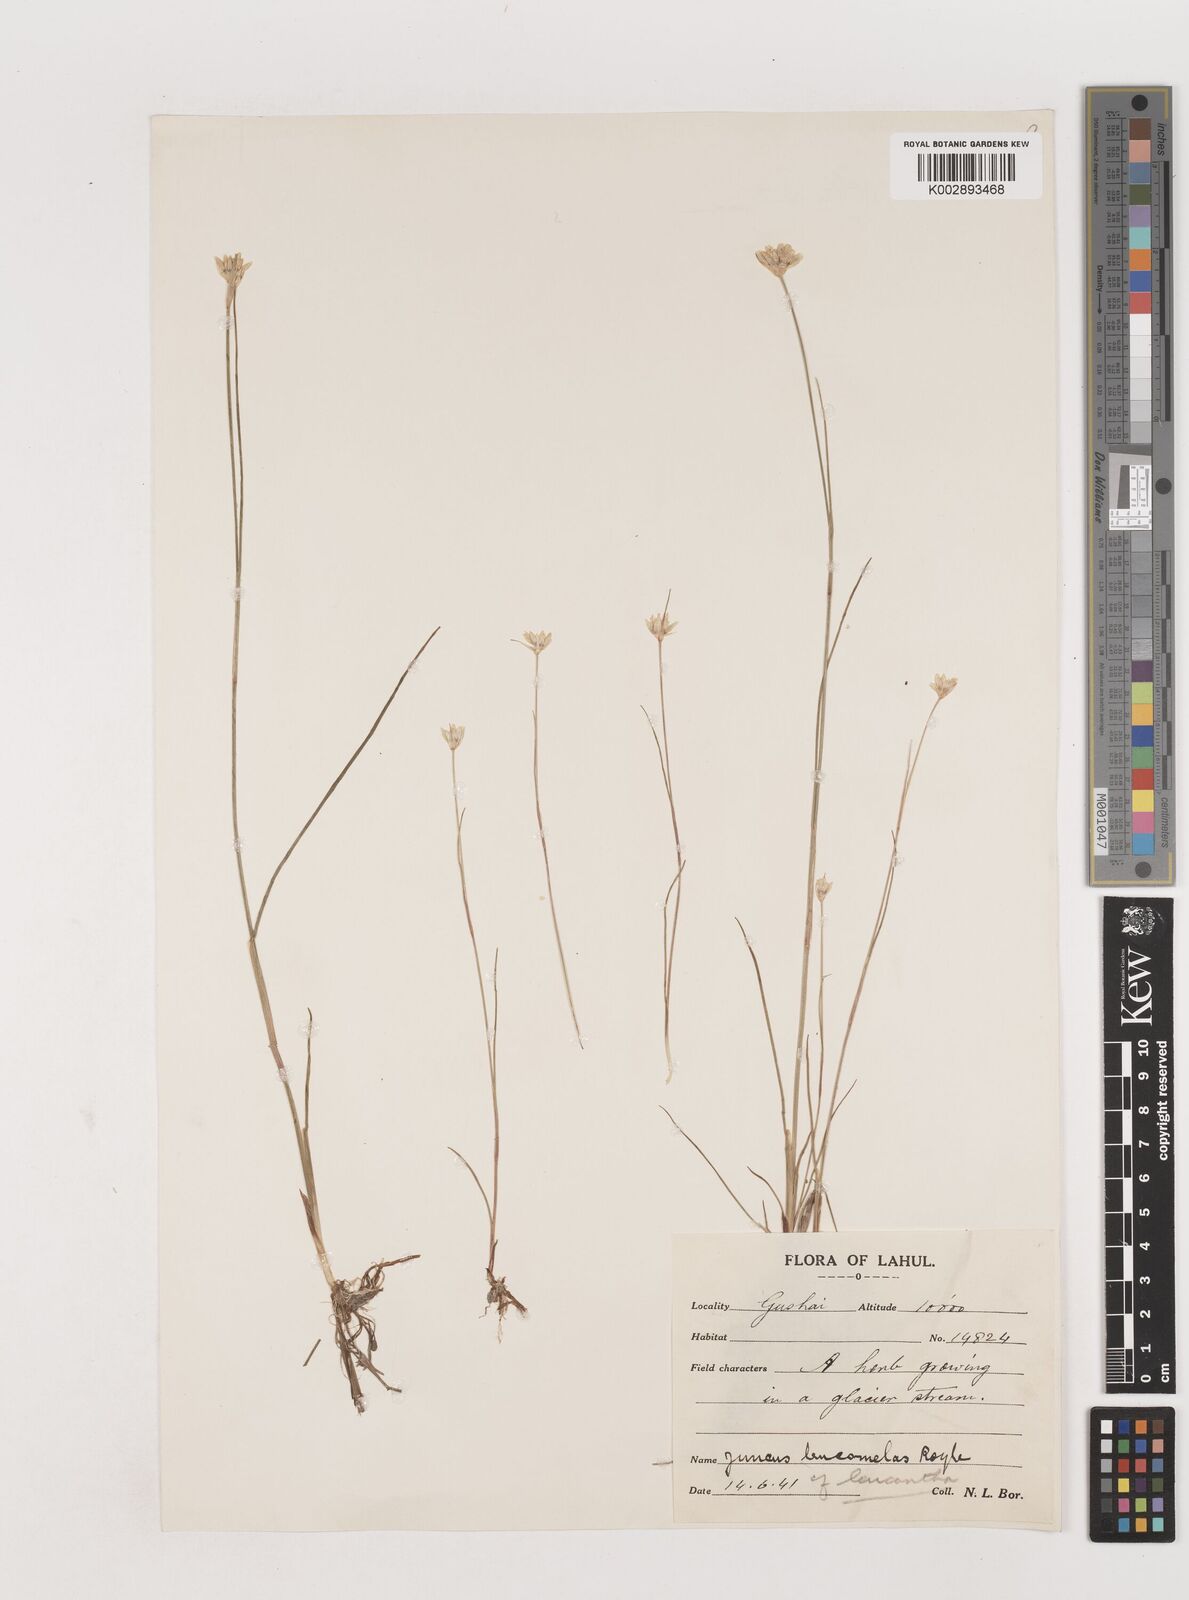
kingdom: Plantae
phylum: Tracheophyta
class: Liliopsida
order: Poales
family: Juncaceae
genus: Juncus
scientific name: Juncus membranaceus
